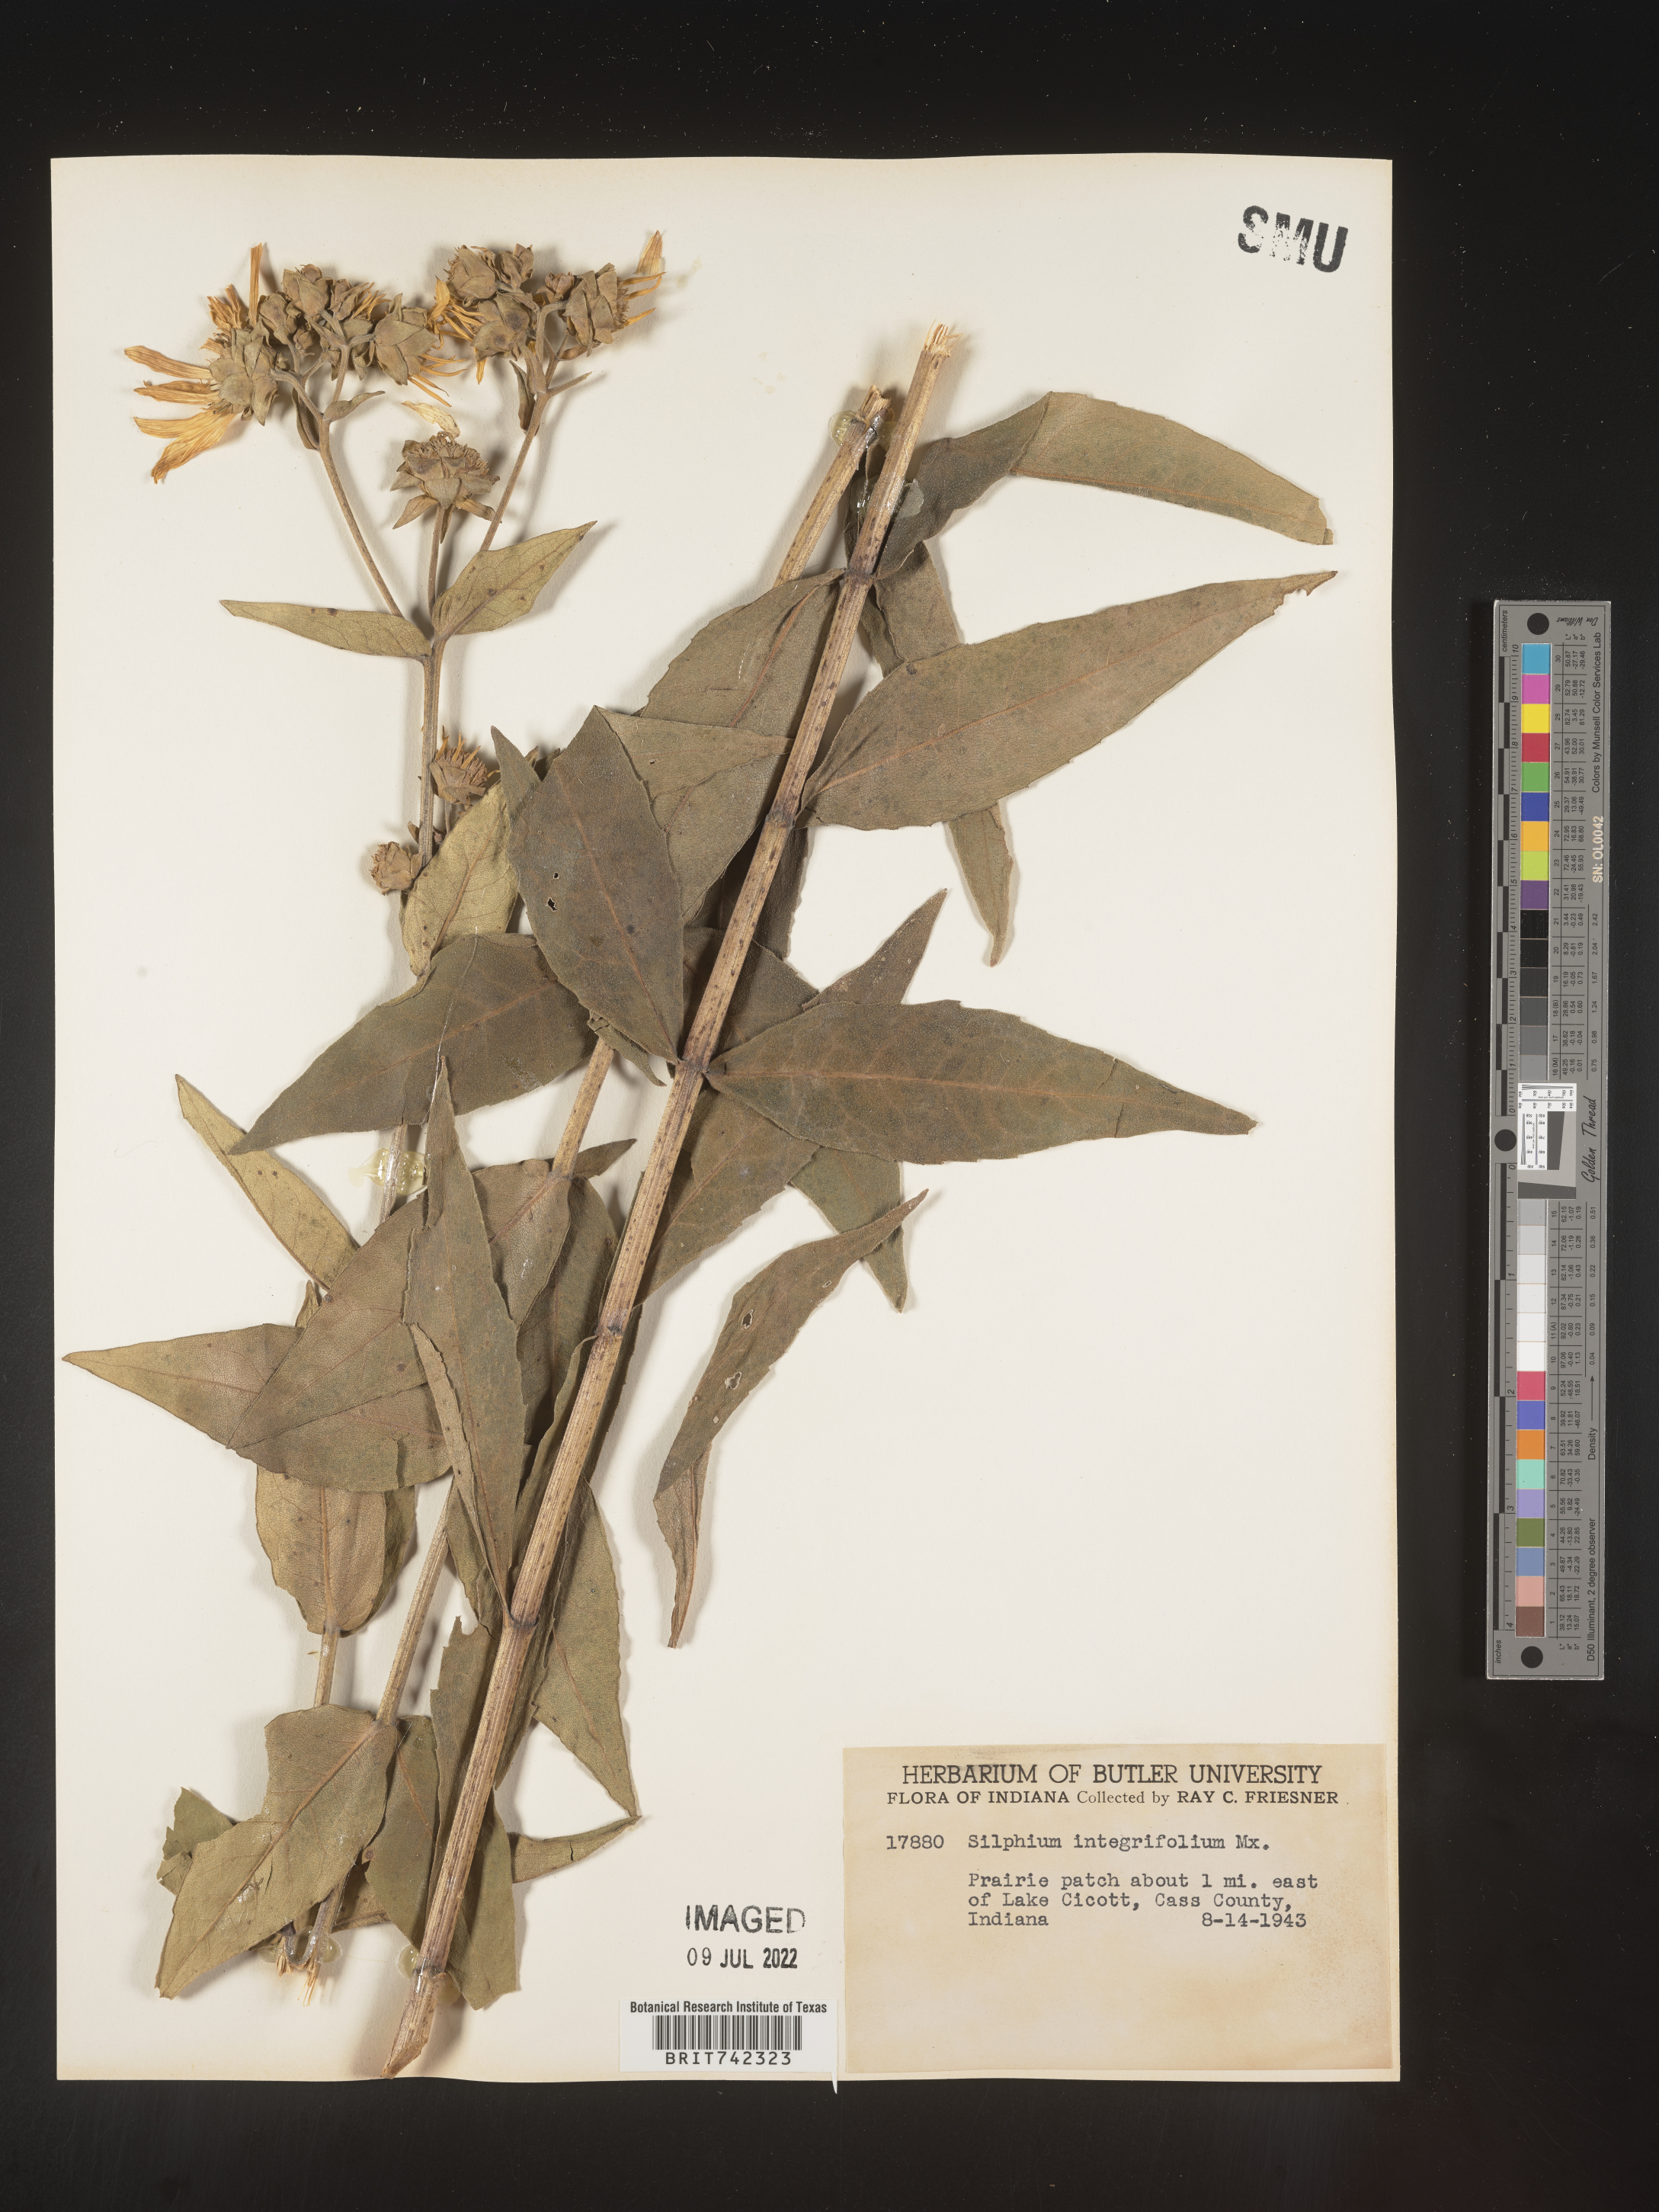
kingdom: Plantae
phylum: Tracheophyta
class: Magnoliopsida
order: Asterales
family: Asteraceae
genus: Silphium
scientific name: Silphium integrifolium
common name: Whole-leaf rosinweed
